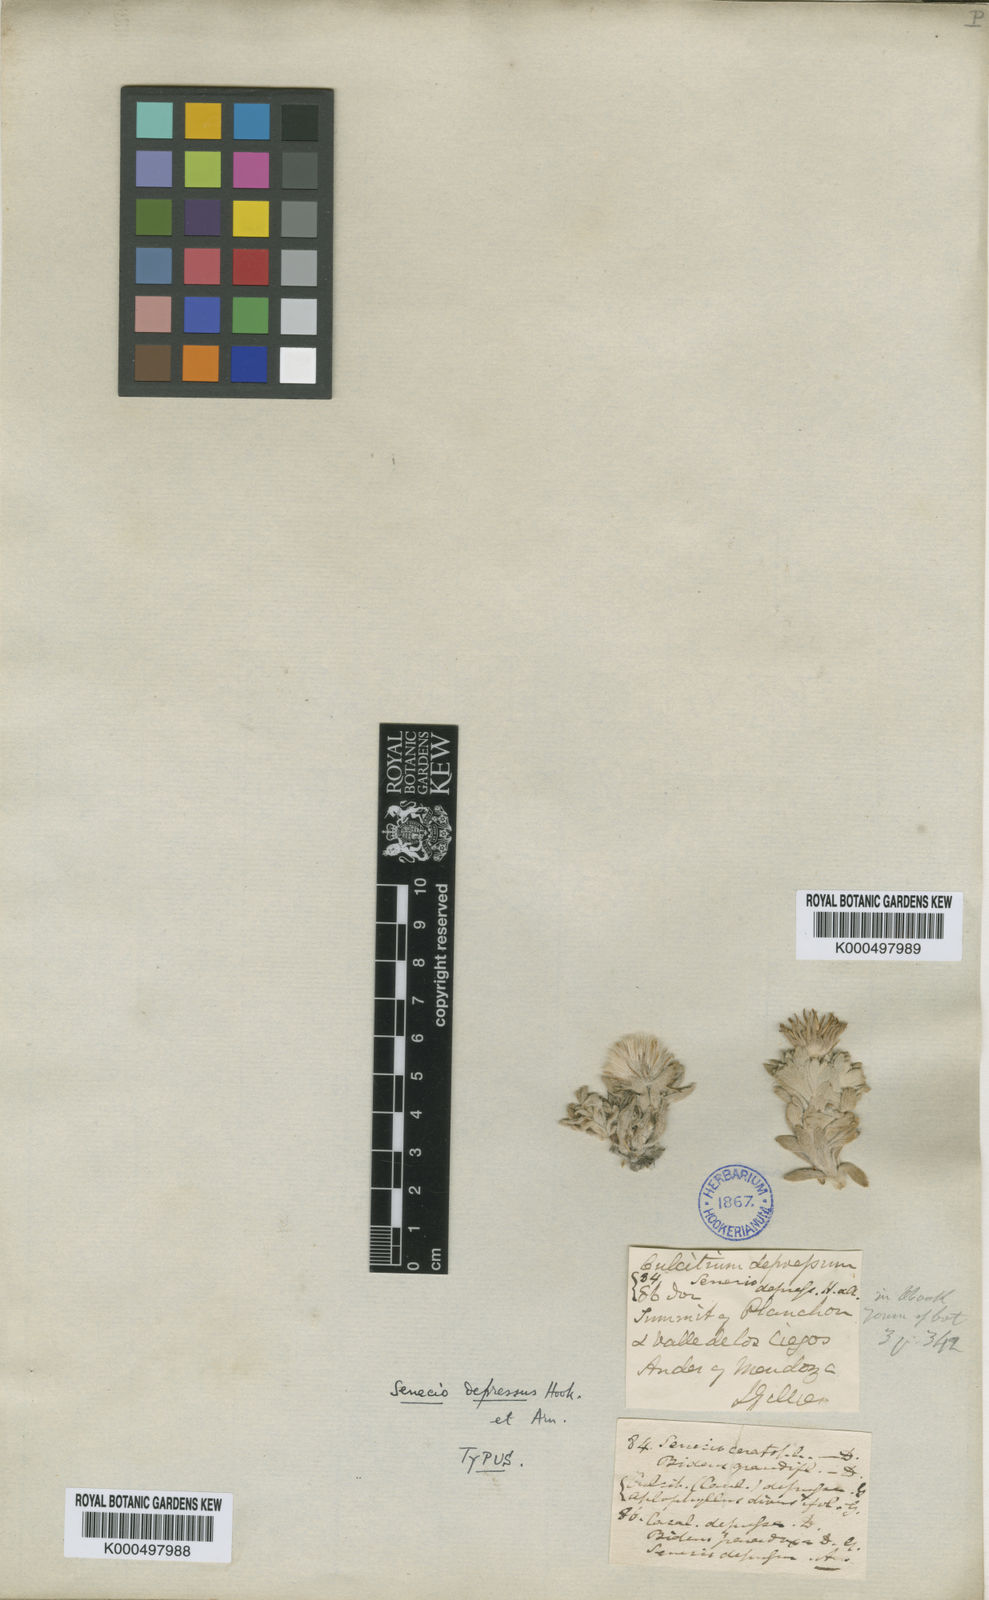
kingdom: Plantae
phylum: Tracheophyta
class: Magnoliopsida
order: Asterales
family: Asteraceae
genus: Senecio
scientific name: Senecio confertissimus
